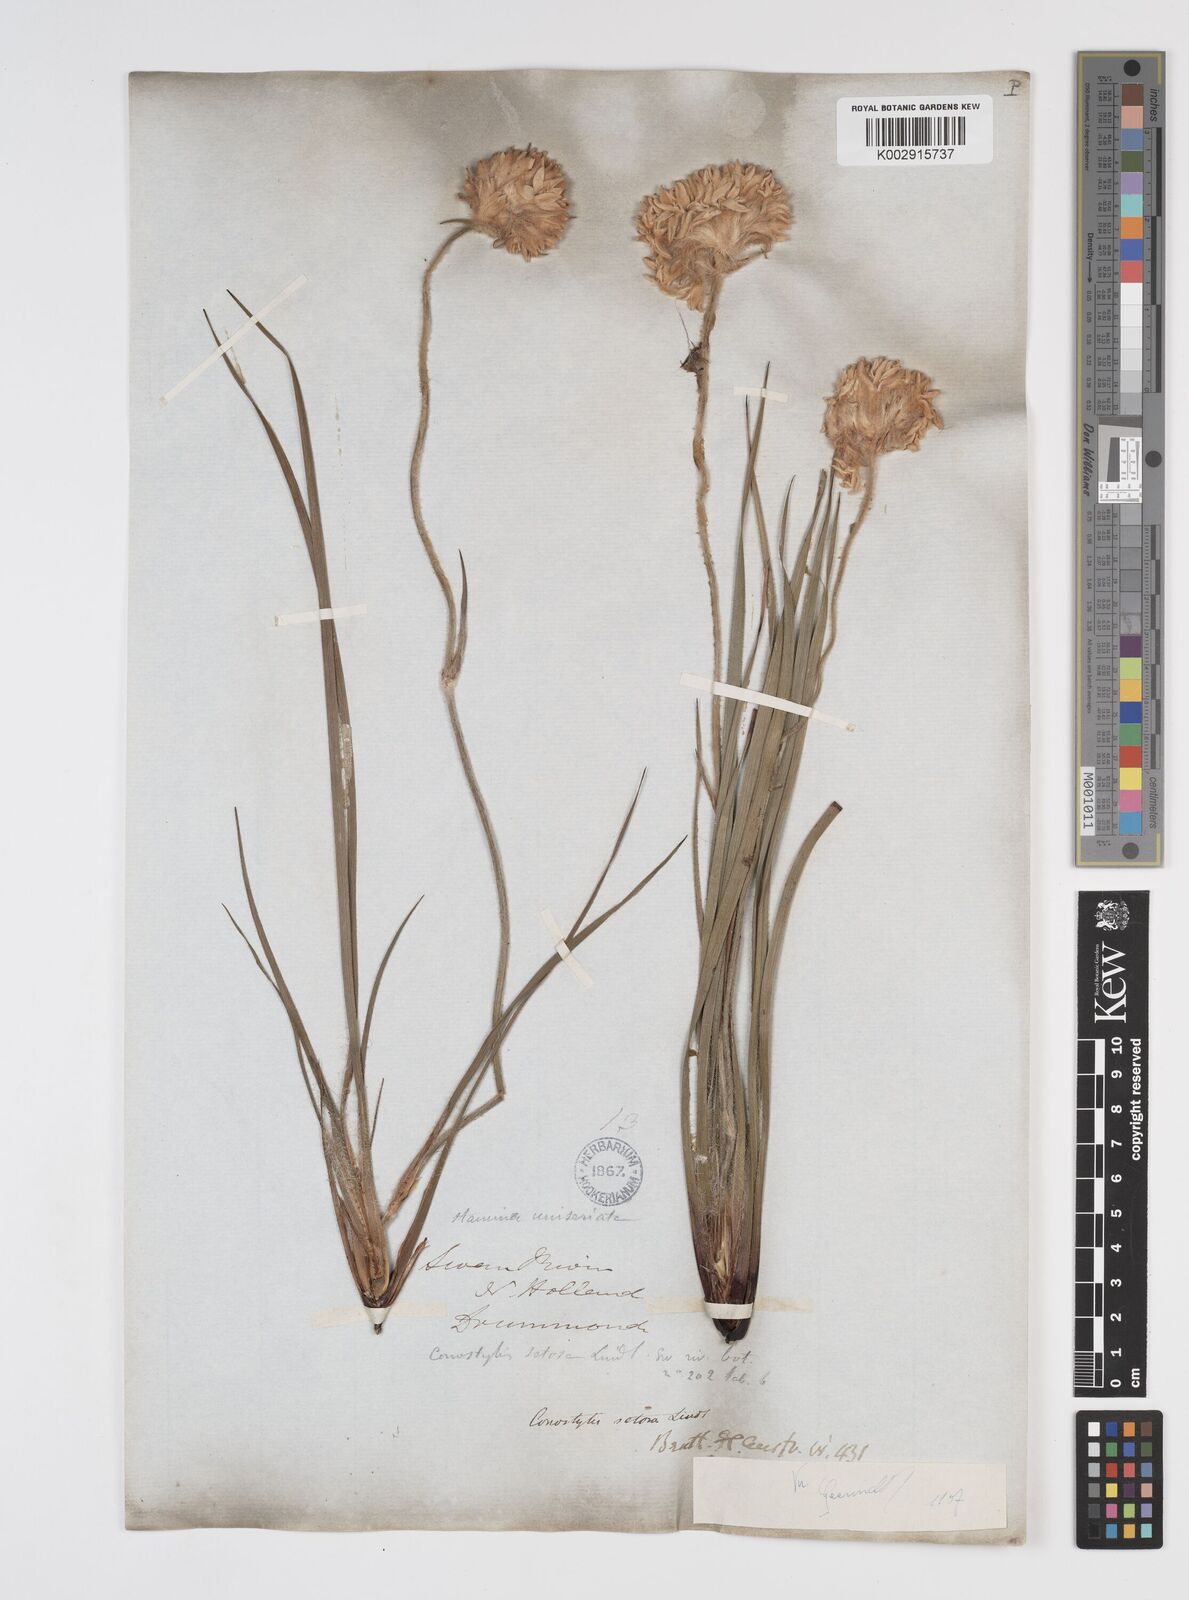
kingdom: Plantae
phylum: Tracheophyta
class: Liliopsida
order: Commelinales
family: Haemodoraceae
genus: Conostylis
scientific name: Conostylis setosa
